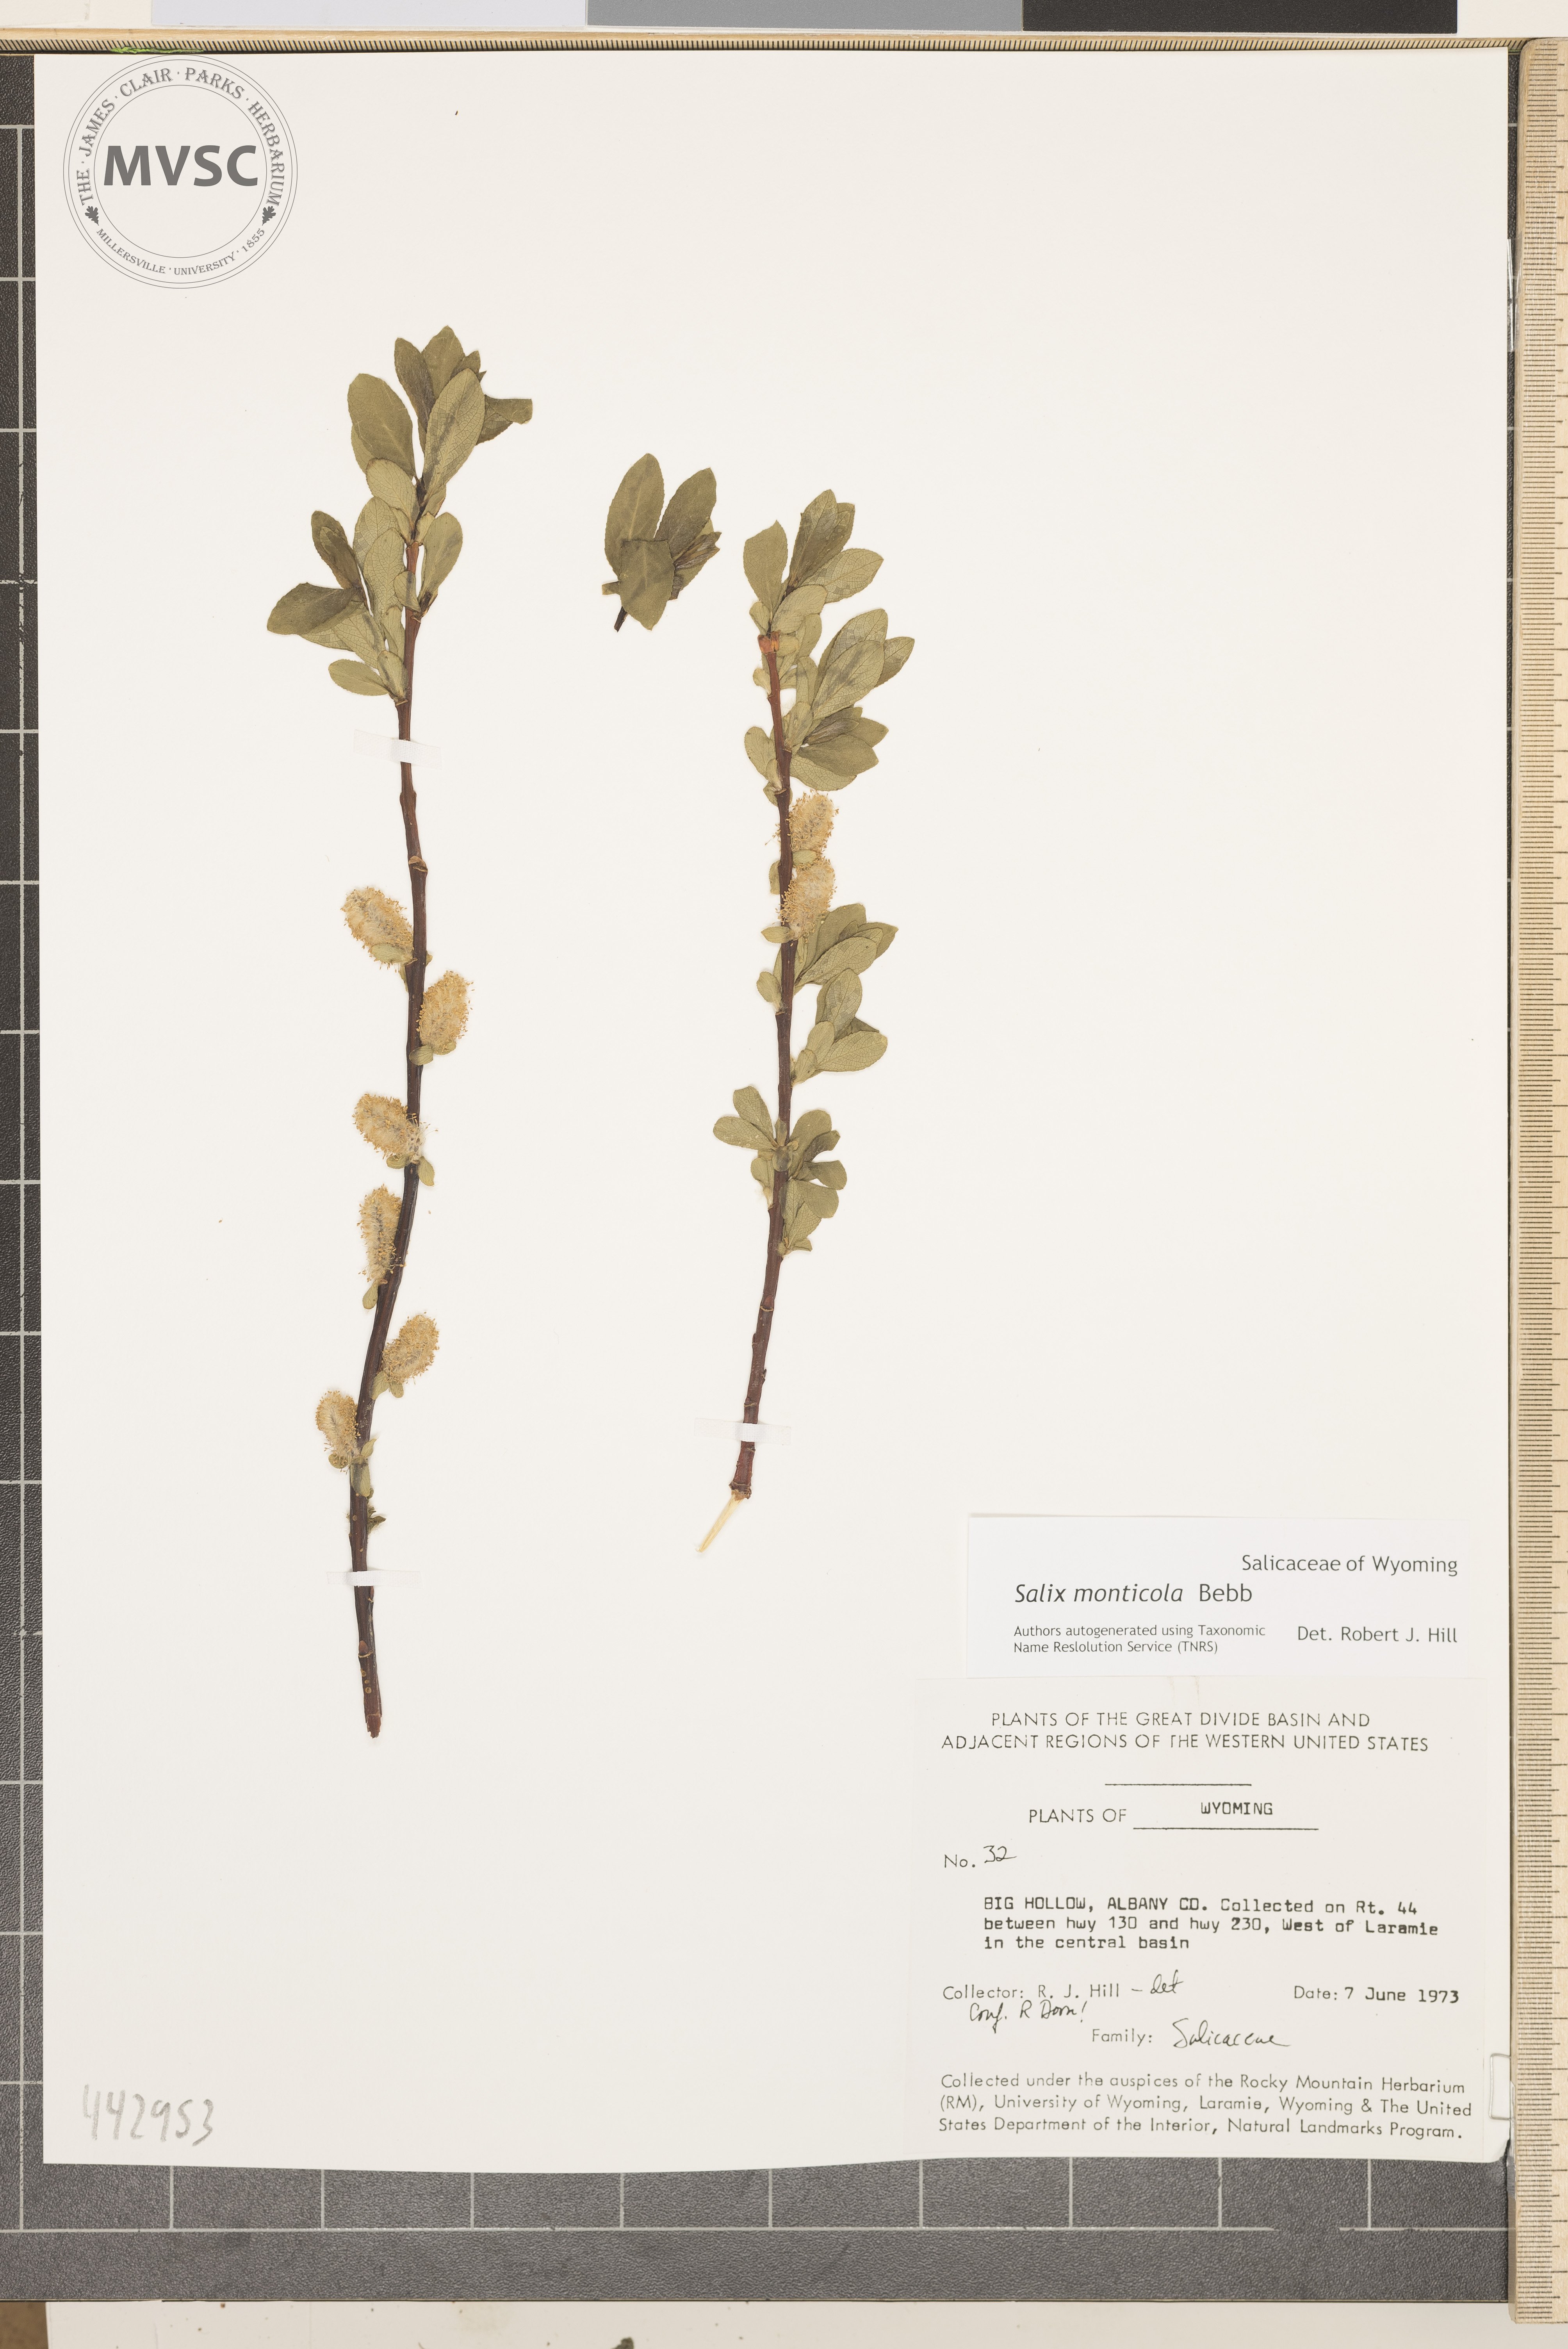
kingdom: Plantae
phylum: Tracheophyta
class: Magnoliopsida
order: Malpighiales
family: Salicaceae
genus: Salix
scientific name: Salix monticola
